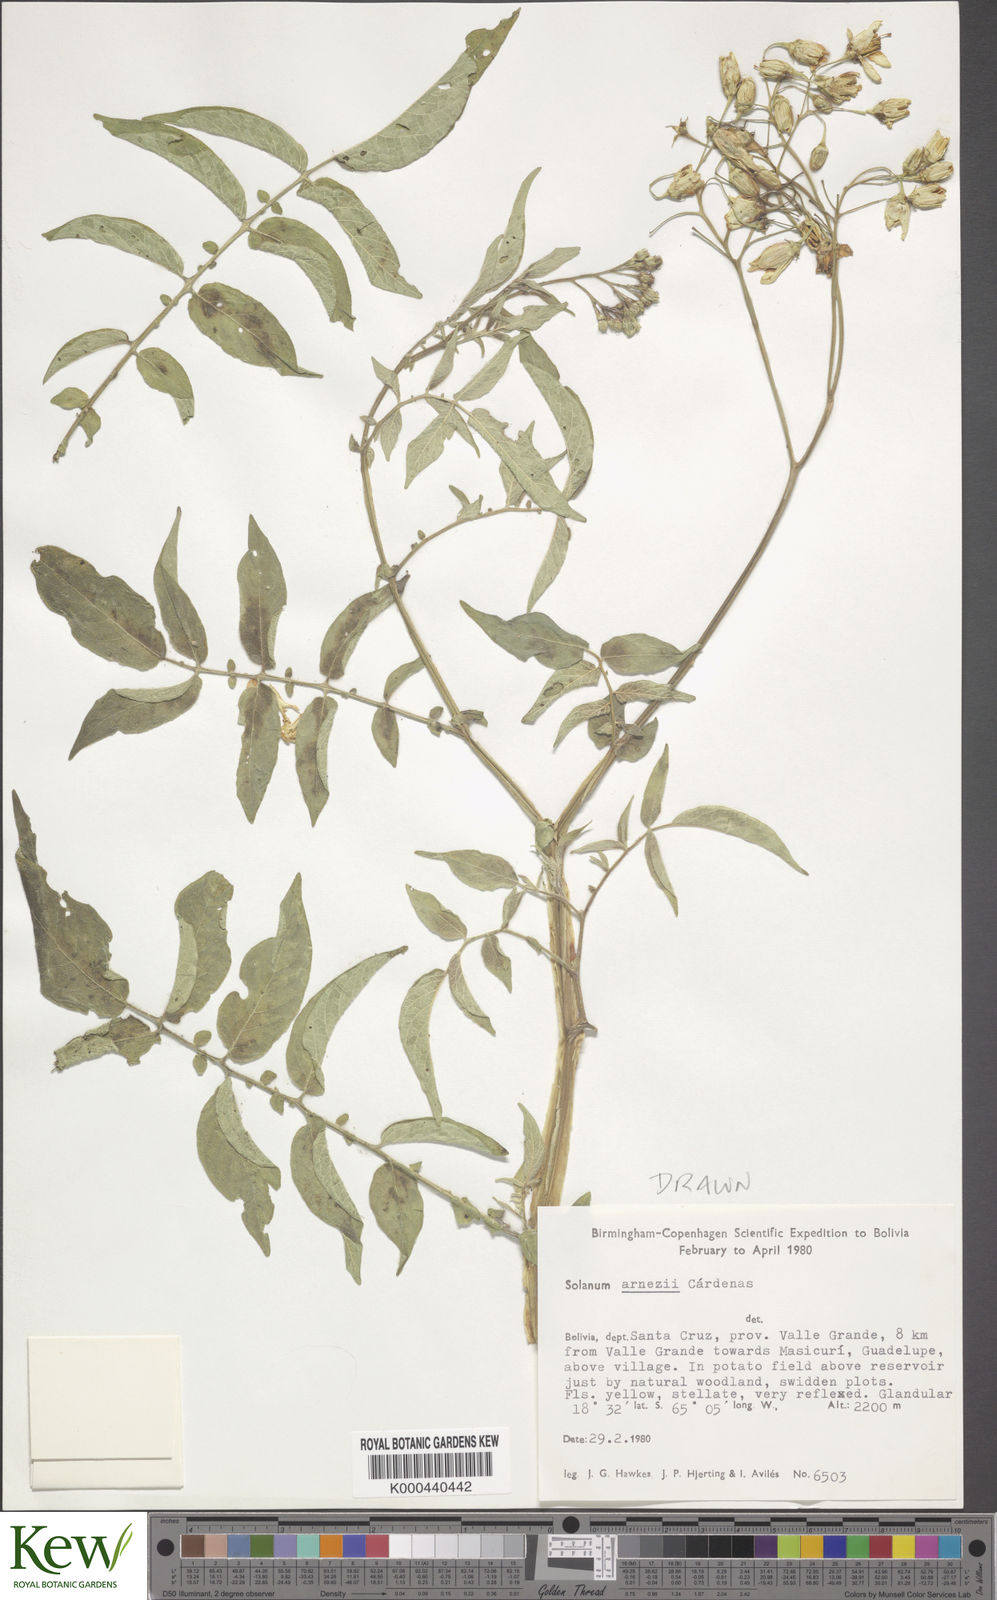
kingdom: Plantae
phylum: Tracheophyta
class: Magnoliopsida
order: Solanales
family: Solanaceae
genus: Solanum
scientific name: Solanum chacoense
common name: Chaco potato
